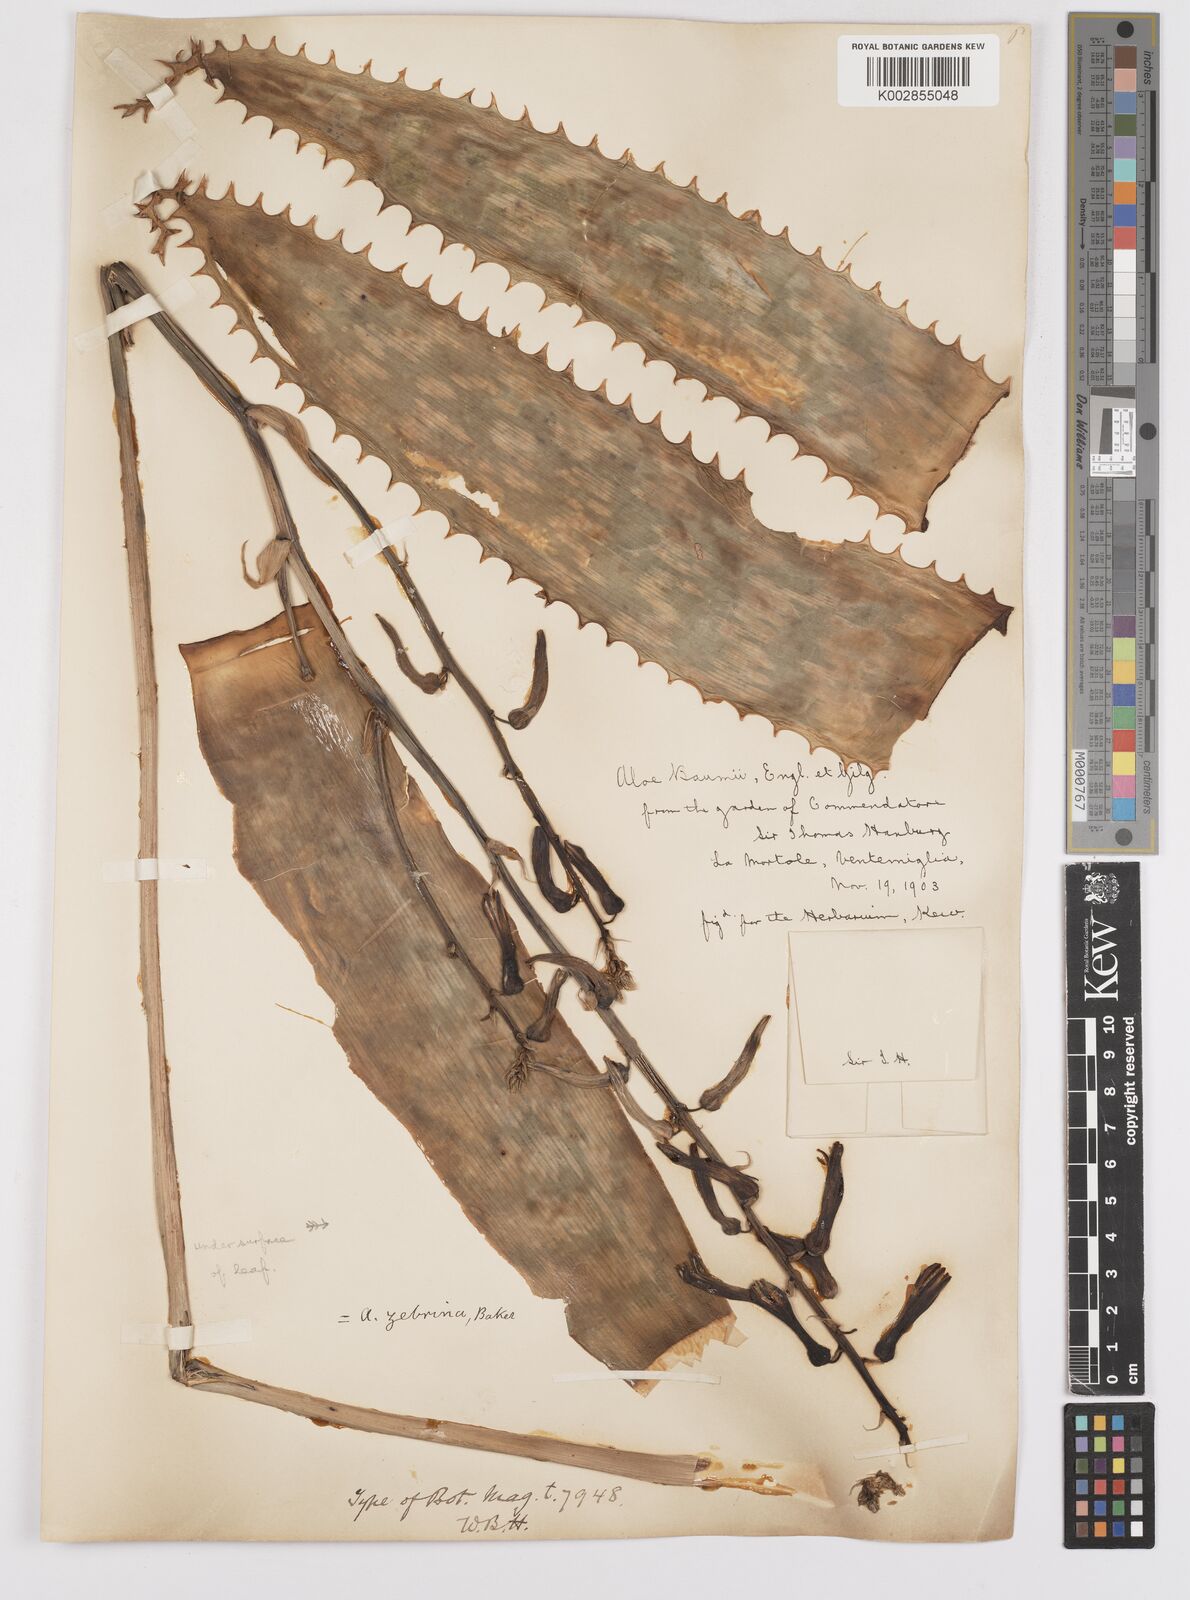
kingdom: Plantae
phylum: Tracheophyta
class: Liliopsida
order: Asparagales
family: Asphodelaceae
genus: Aloe
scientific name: Aloe zebrina
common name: Zebra-leaf aloe
